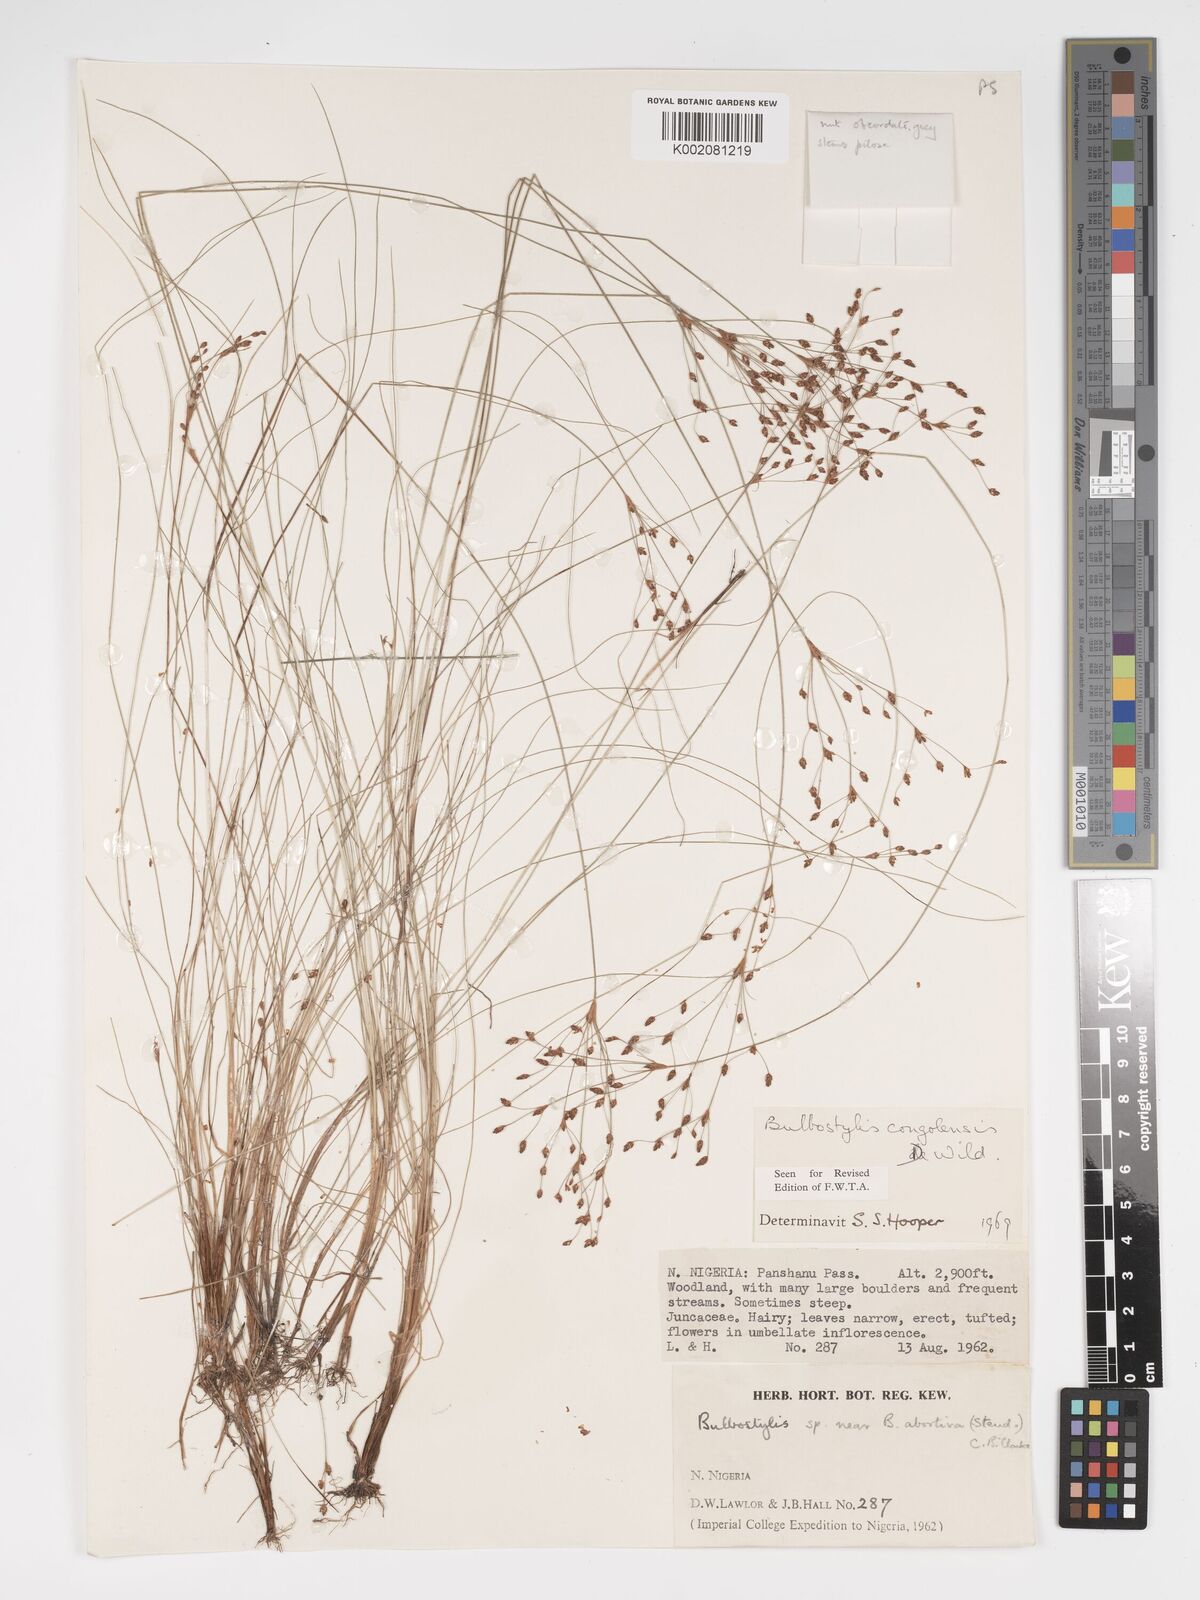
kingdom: Plantae
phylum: Tracheophyta
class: Liliopsida
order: Poales
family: Cyperaceae
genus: Bulbostylis
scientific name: Bulbostylis congolensis
